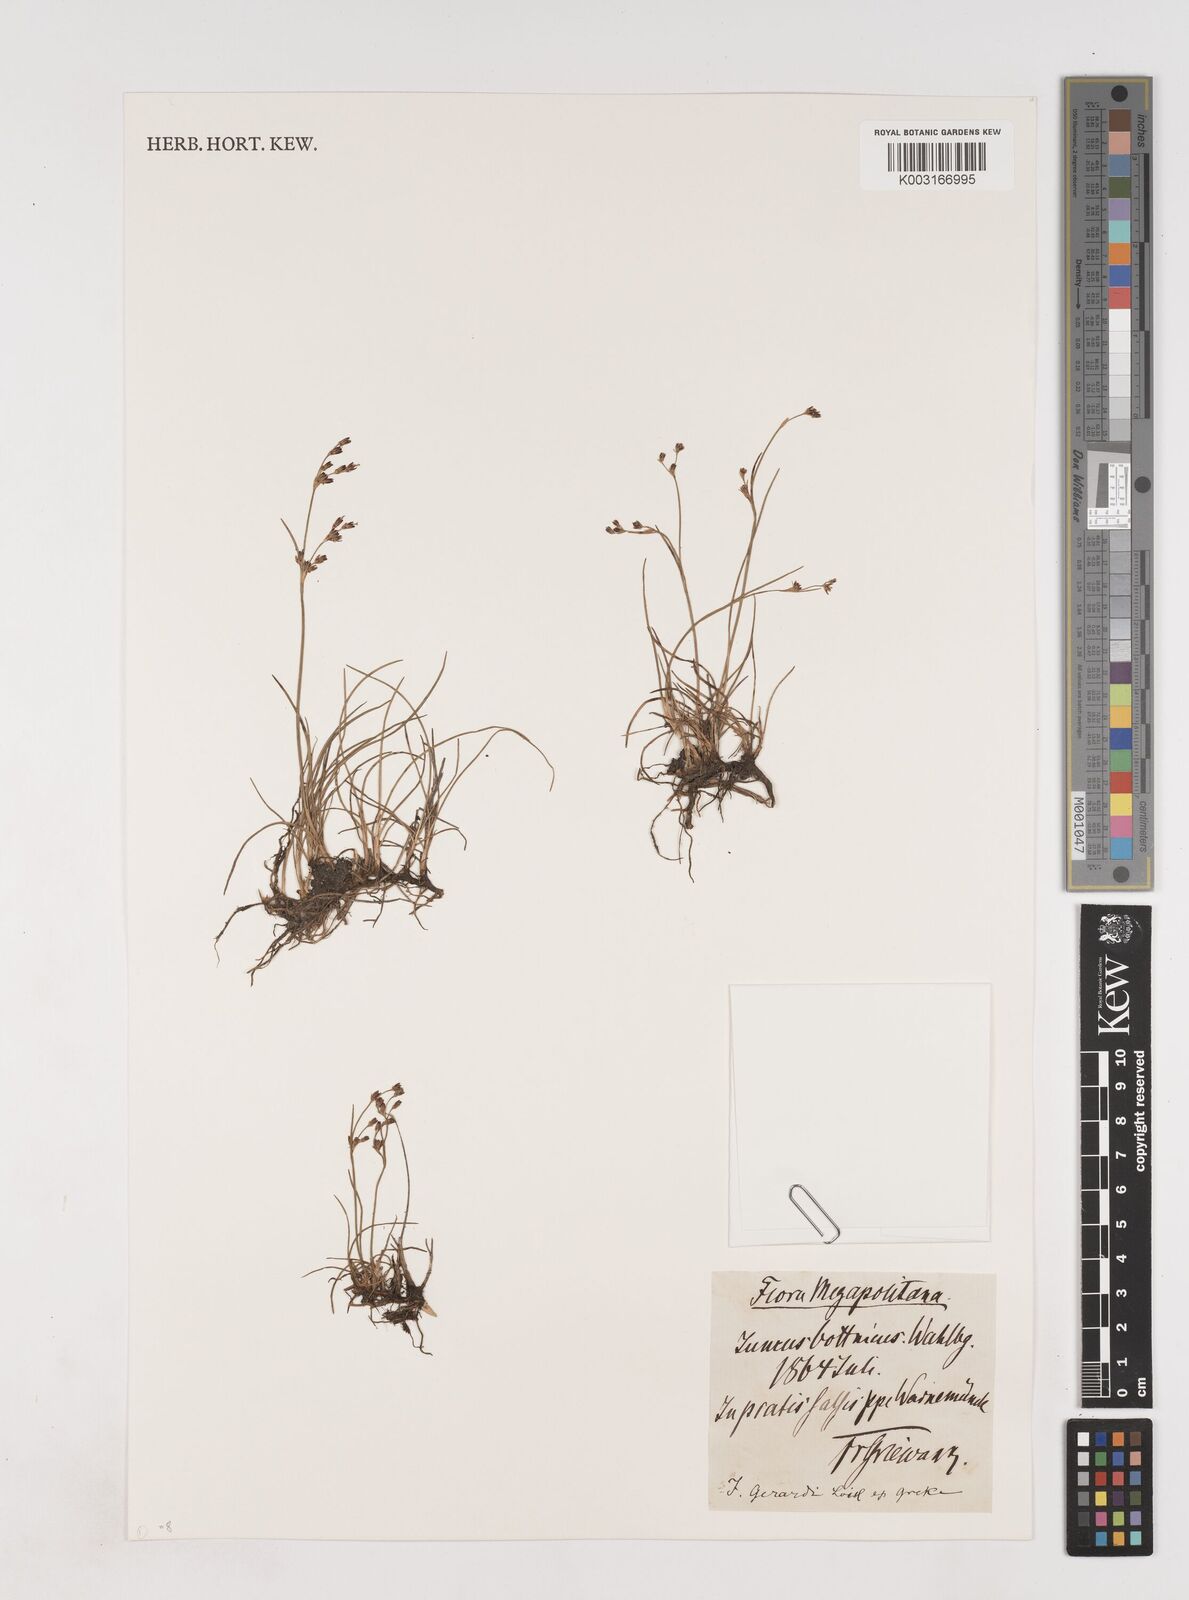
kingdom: Plantae
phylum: Tracheophyta
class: Liliopsida
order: Poales
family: Juncaceae
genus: Juncus
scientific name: Juncus gerardi
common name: Saltmarsh rush
